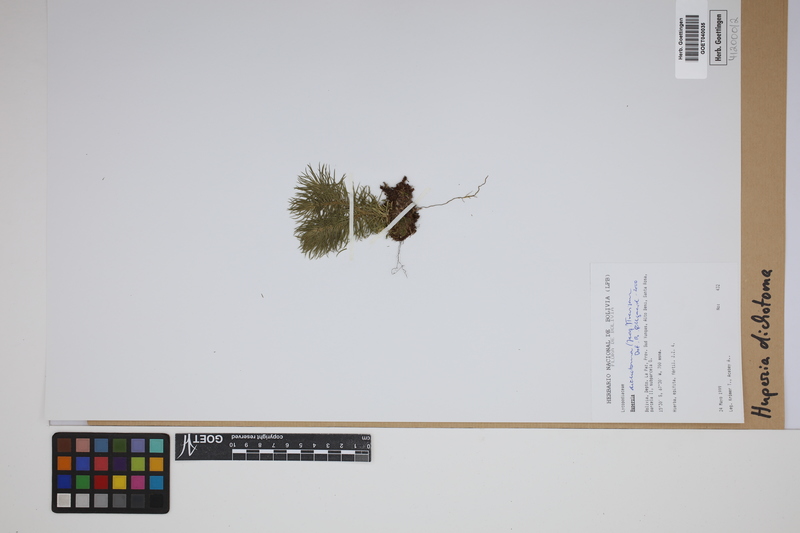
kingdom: Plantae
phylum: Tracheophyta
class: Lycopodiopsida
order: Lycopodiales
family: Lycopodiaceae
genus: Phlegmariurus
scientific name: Phlegmariurus dichotomus
